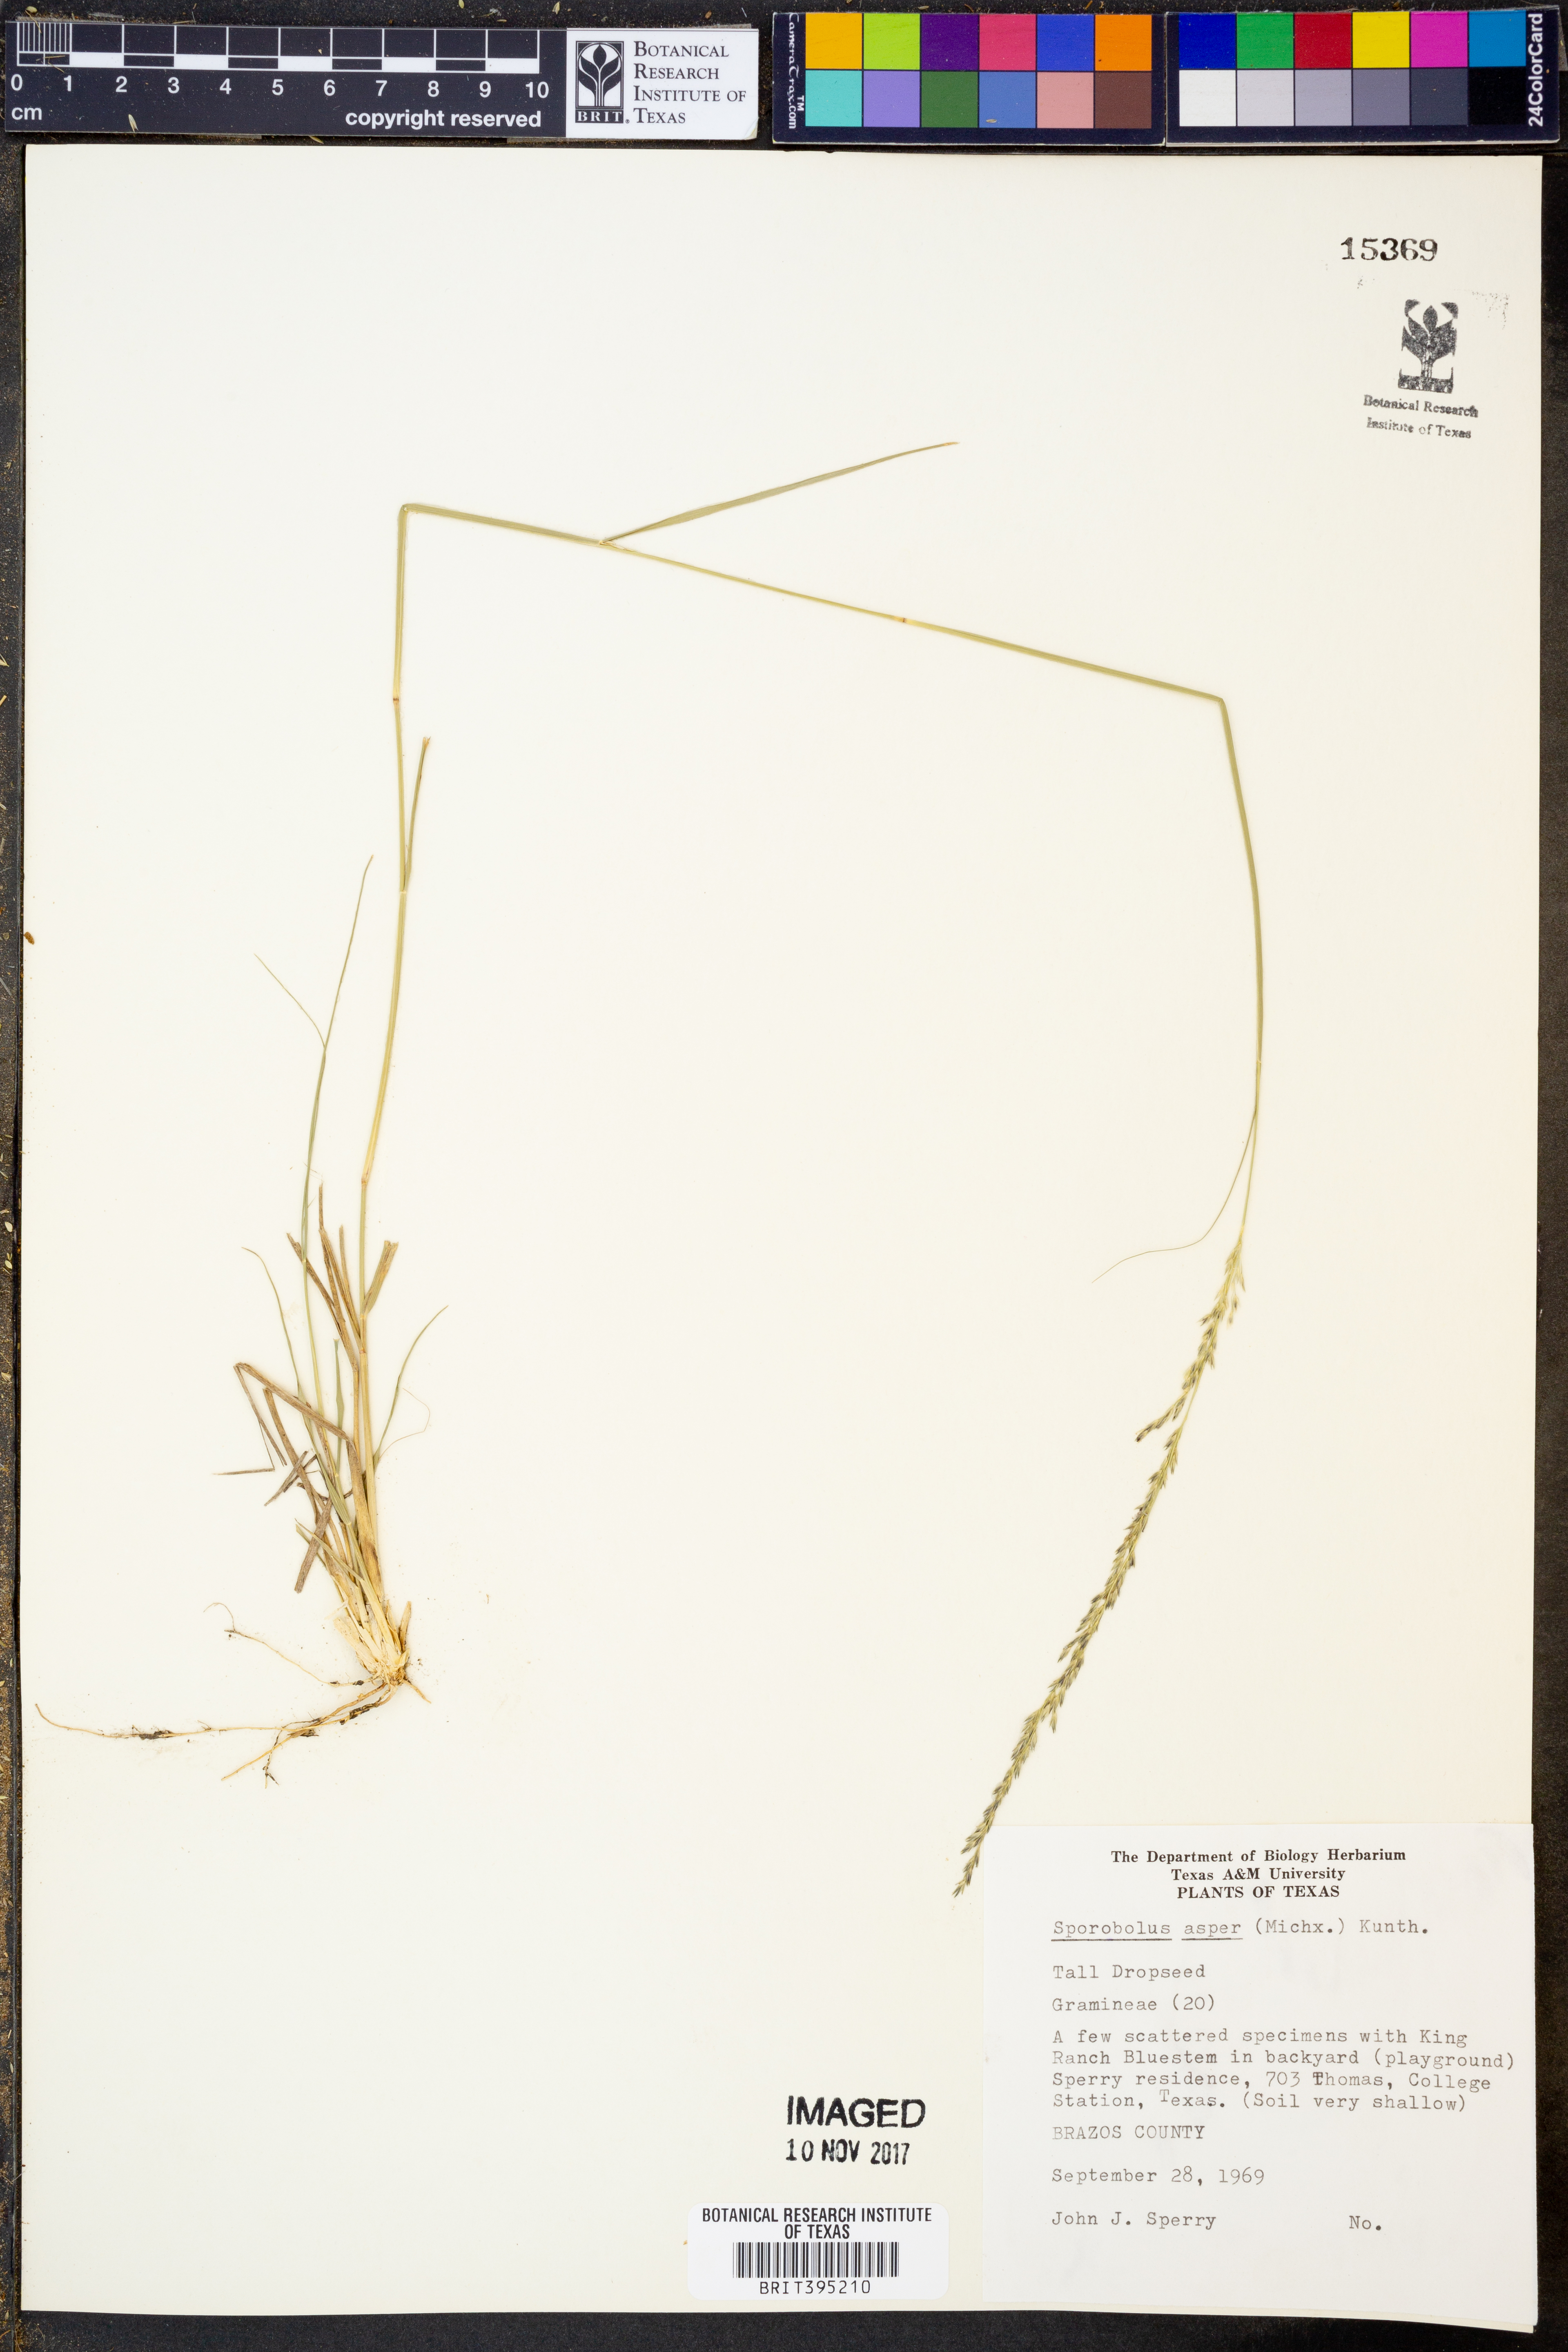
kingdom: Plantae
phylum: Tracheophyta
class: Liliopsida
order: Poales
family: Poaceae
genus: Sporobolus
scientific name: Sporobolus compositus
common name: Rough dropseed
